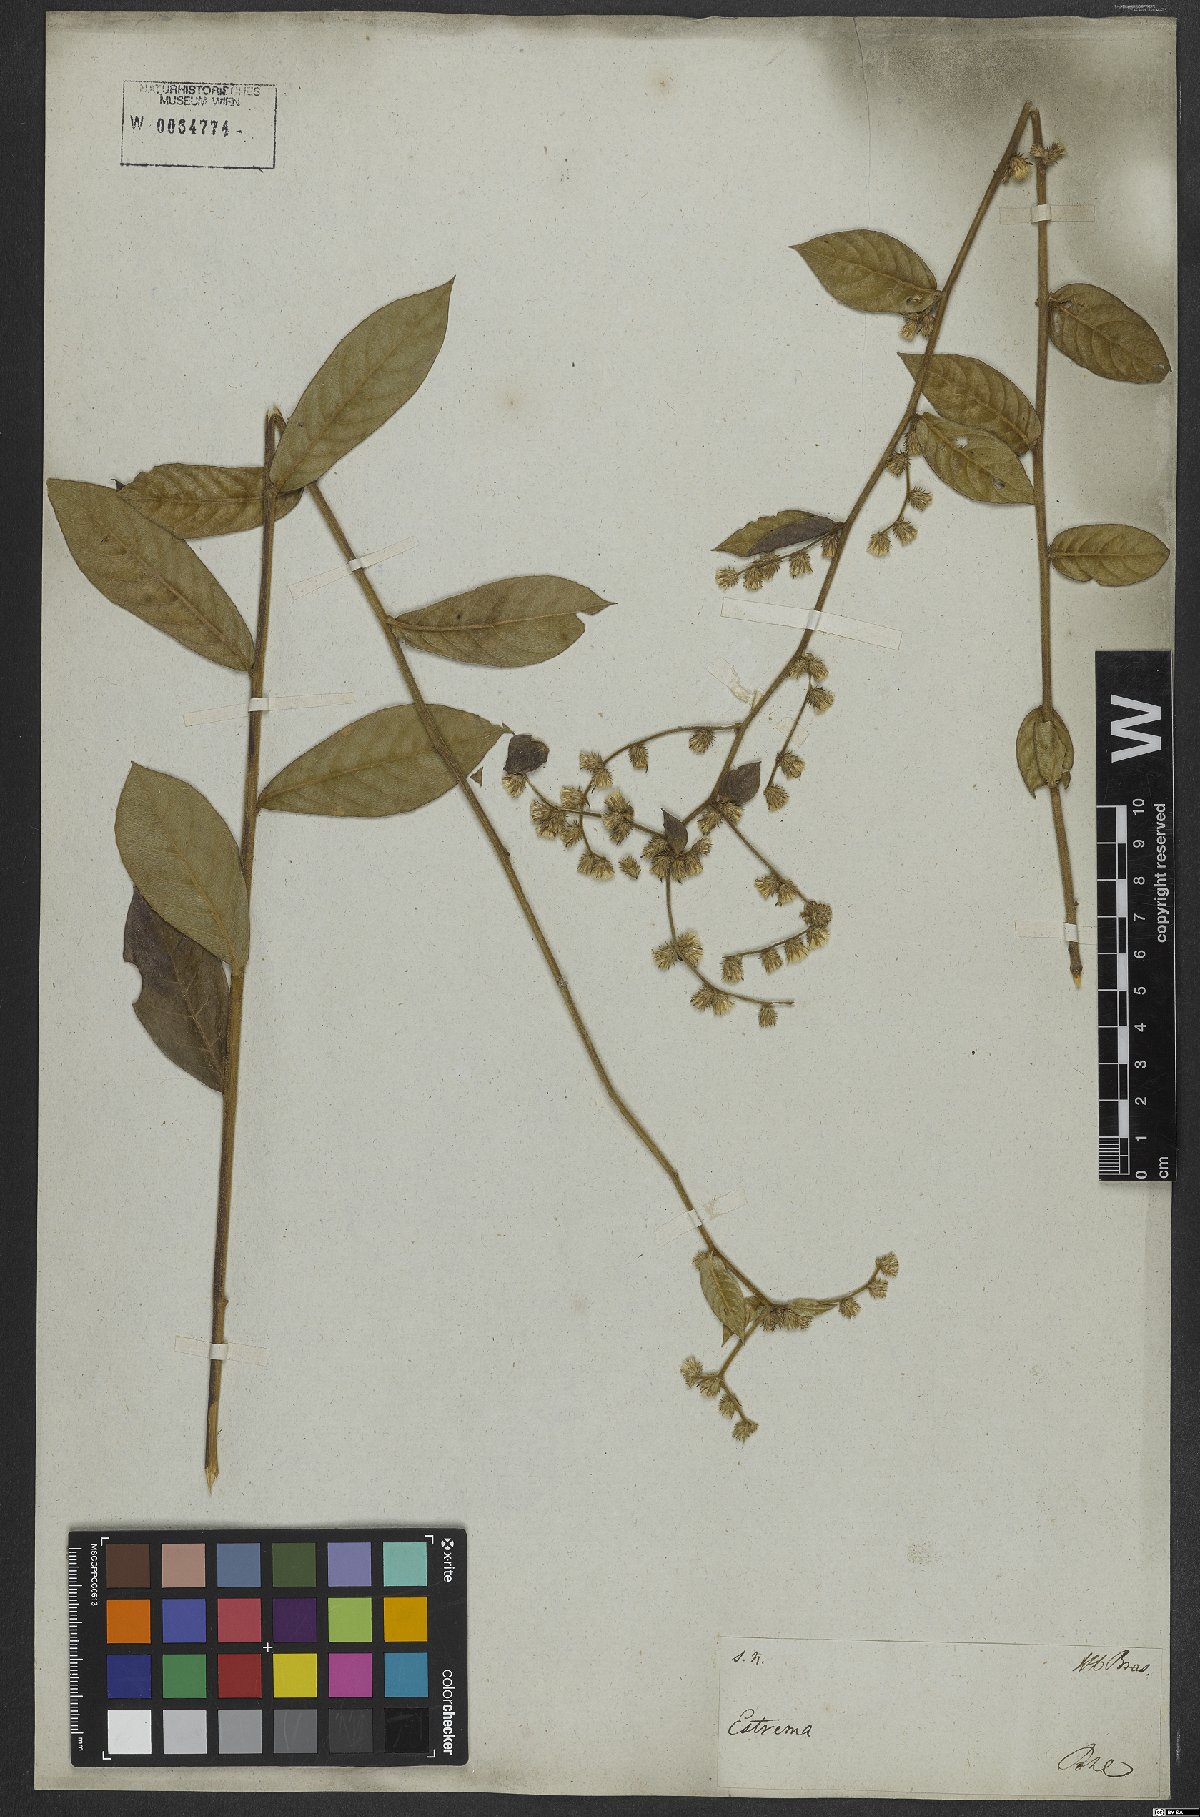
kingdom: Plantae
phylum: Tracheophyta
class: Magnoliopsida
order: Asterales
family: Asteraceae
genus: Lepidaploa
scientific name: Lepidaploa subsquarrosa
